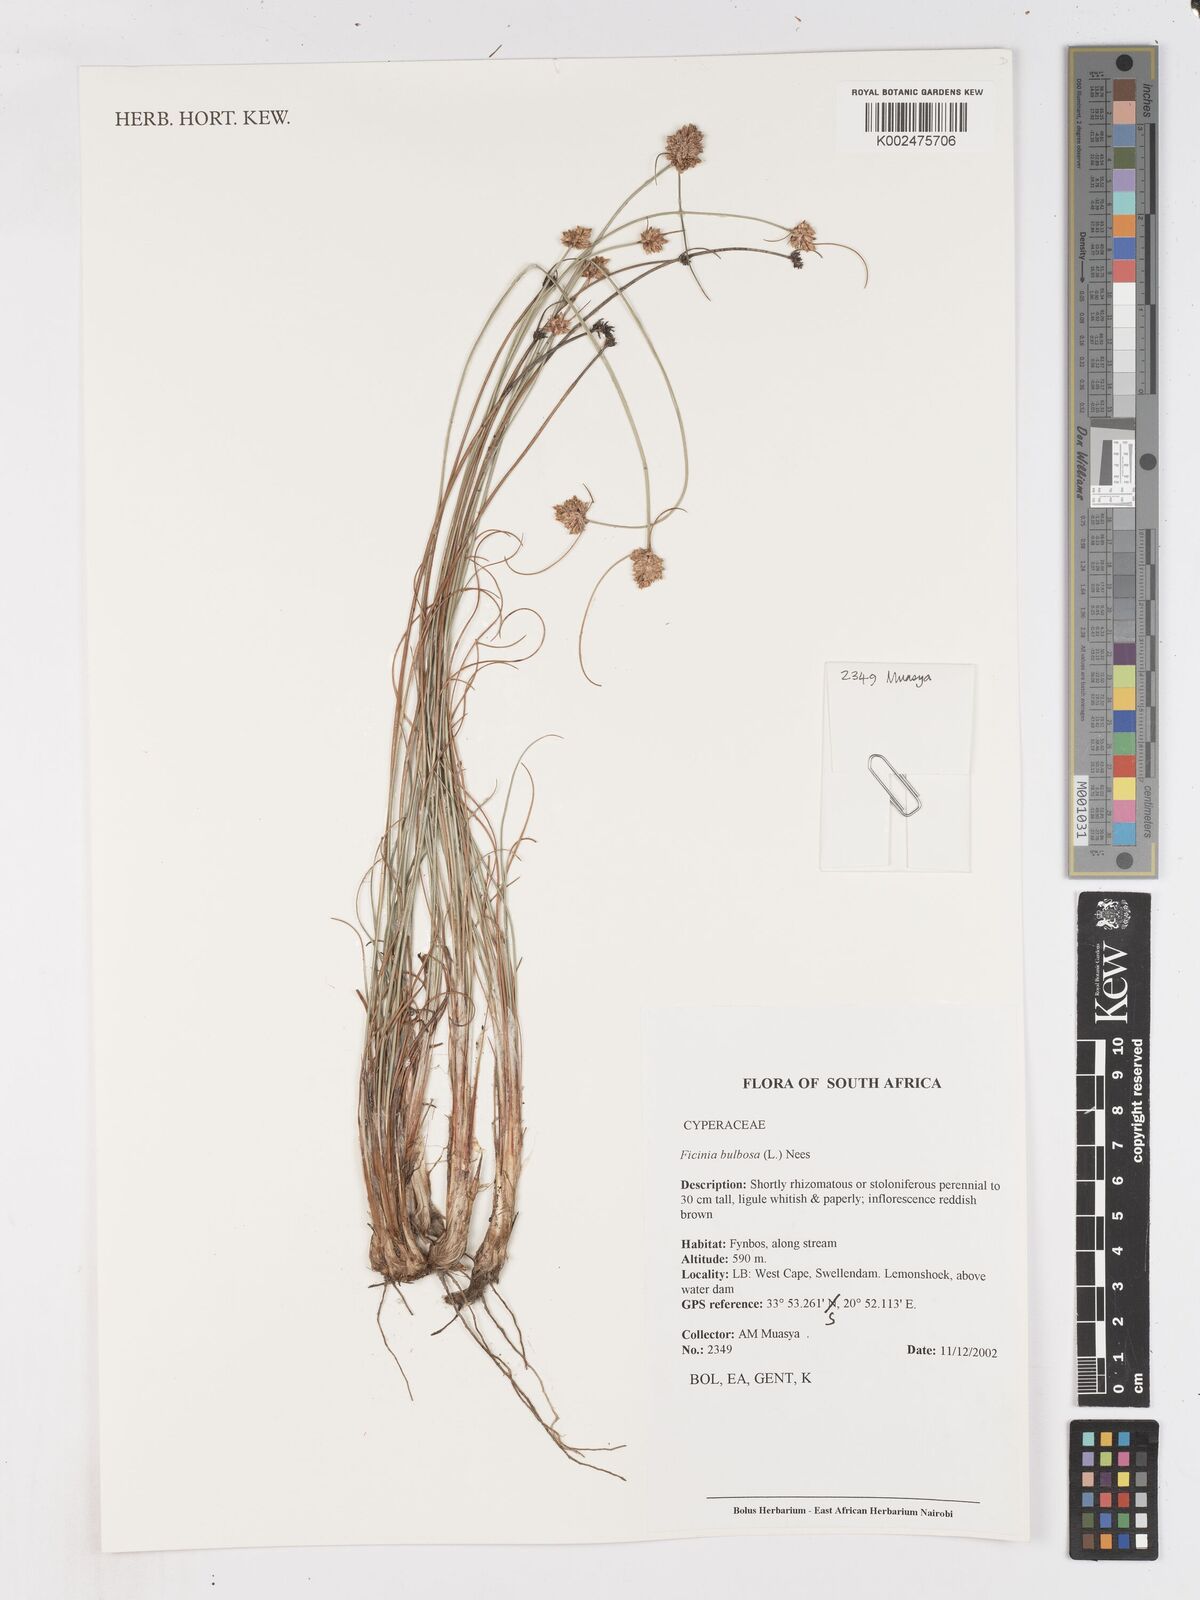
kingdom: Plantae
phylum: Tracheophyta
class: Liliopsida
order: Poales
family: Cyperaceae
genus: Ficinia
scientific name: Ficinia bulbosa
